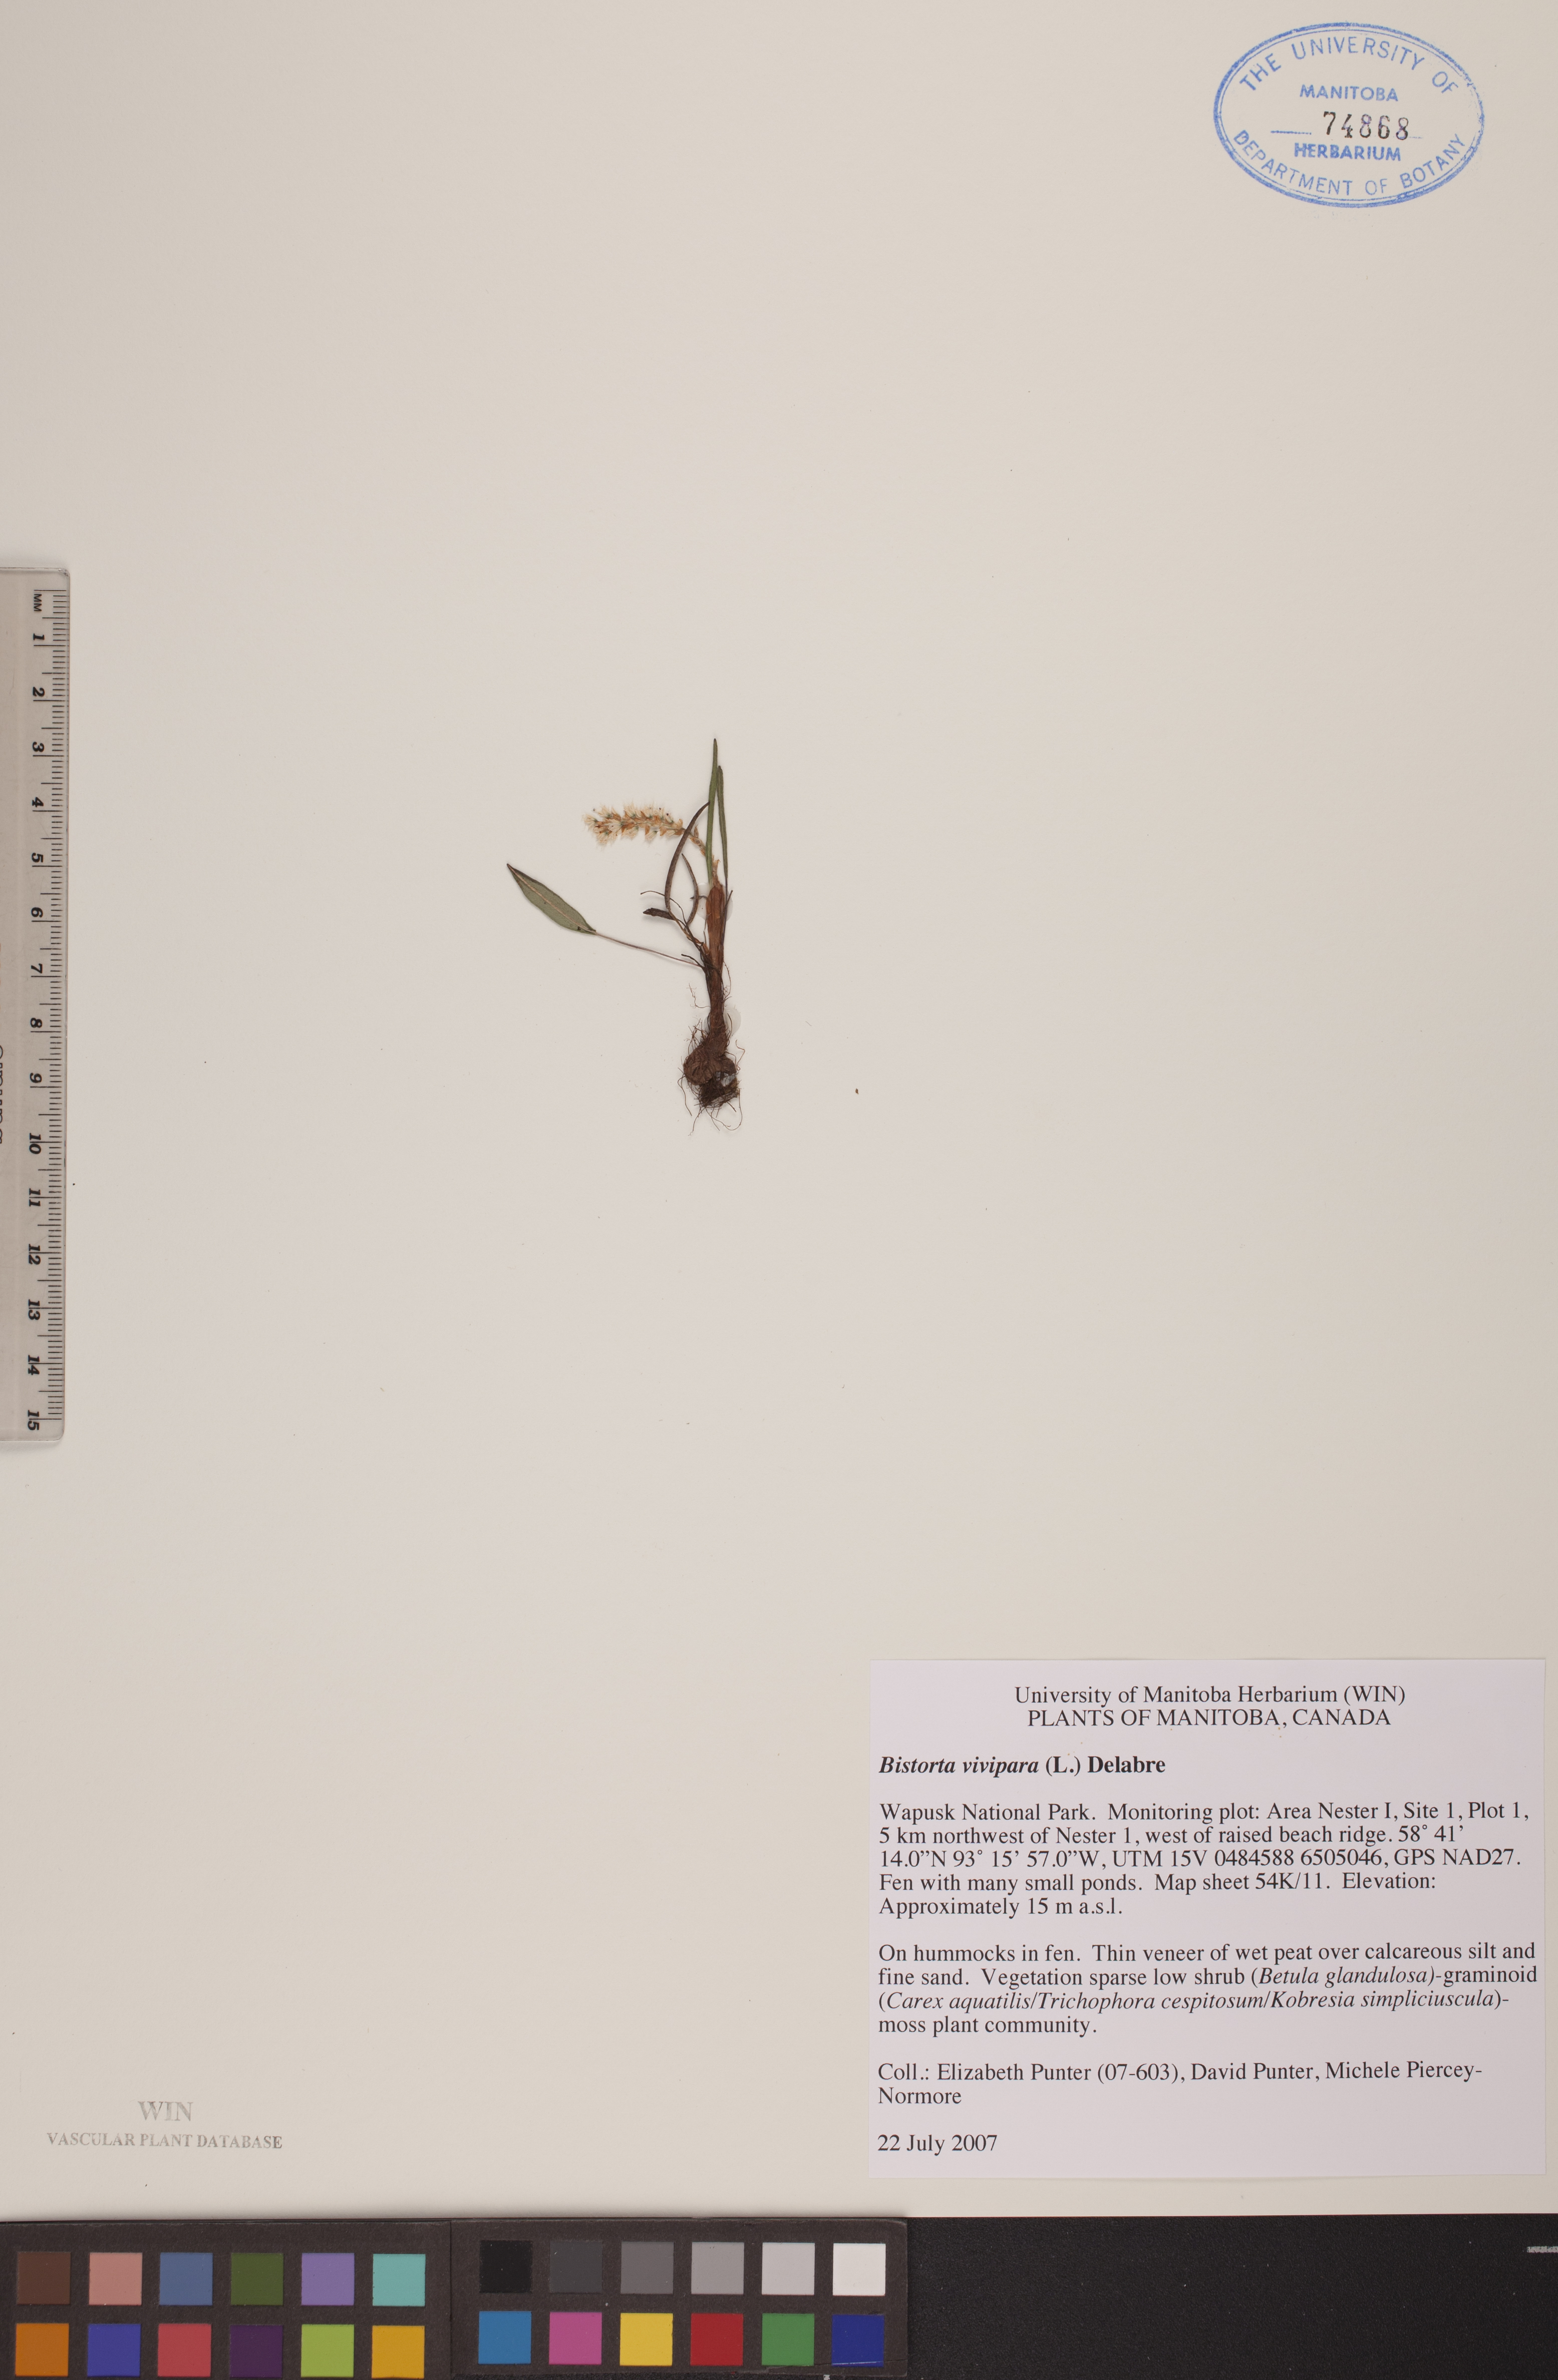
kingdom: Plantae
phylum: Tracheophyta
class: Magnoliopsida
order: Caryophyllales
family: Polygonaceae
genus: Bistorta
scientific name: Bistorta vivipara
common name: Alpine bistort
